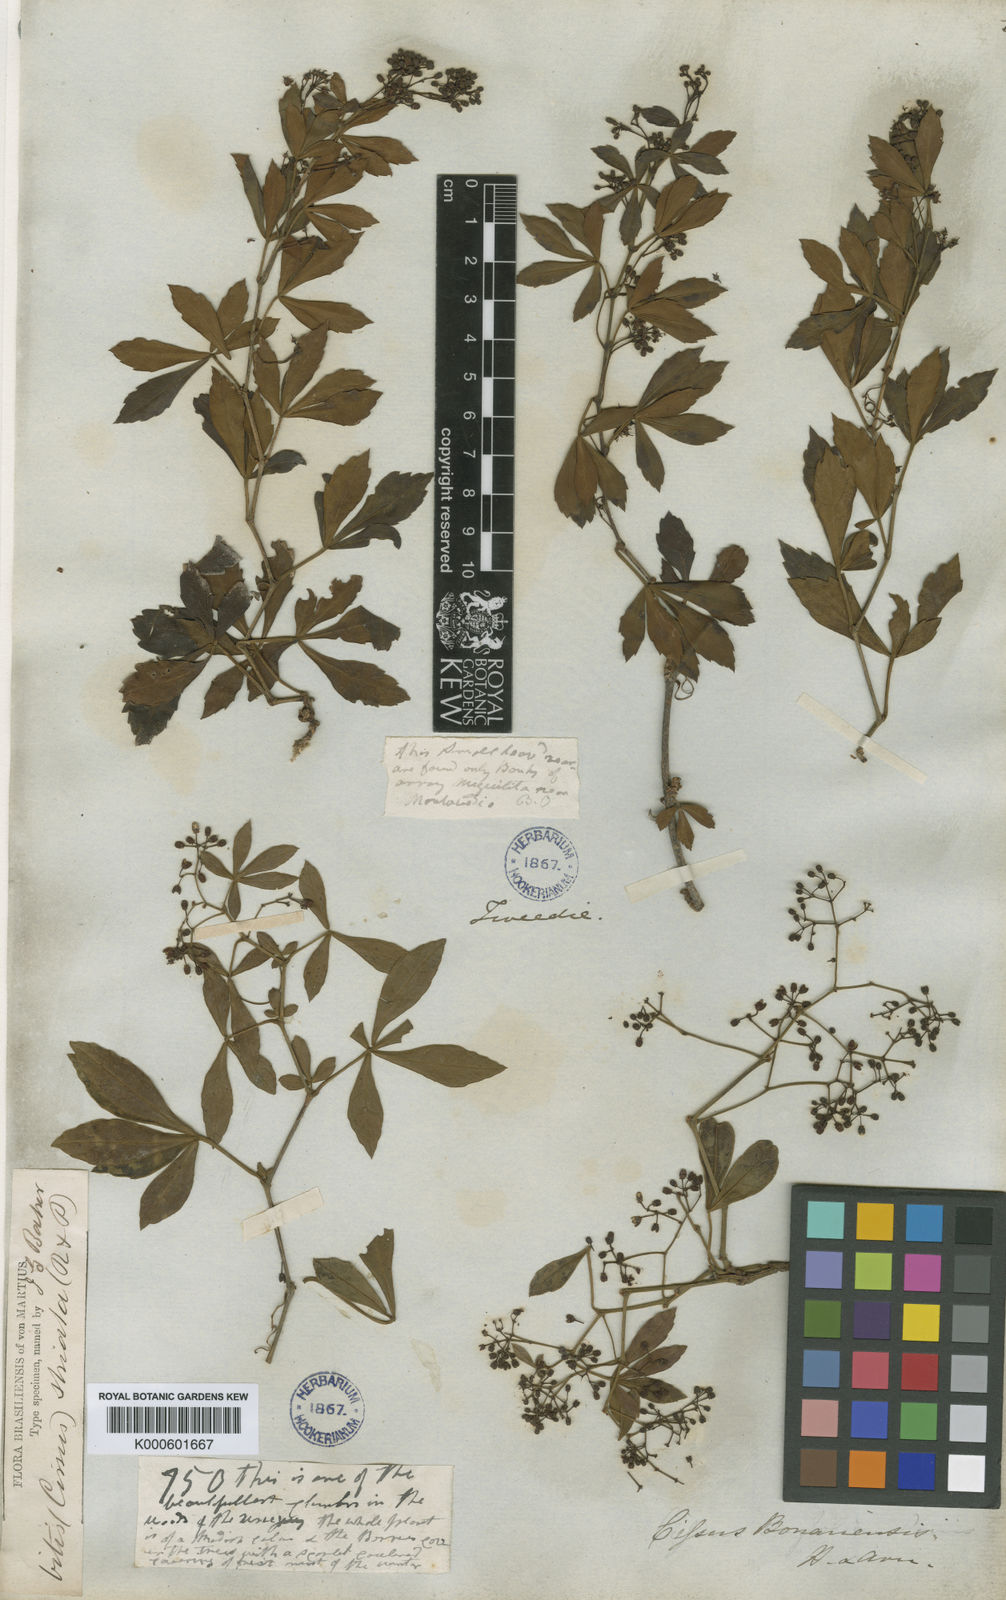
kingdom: Plantae
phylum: Tracheophyta
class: Magnoliopsida
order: Vitales
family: Vitaceae
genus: Clematicissus
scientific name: Clematicissus striata
